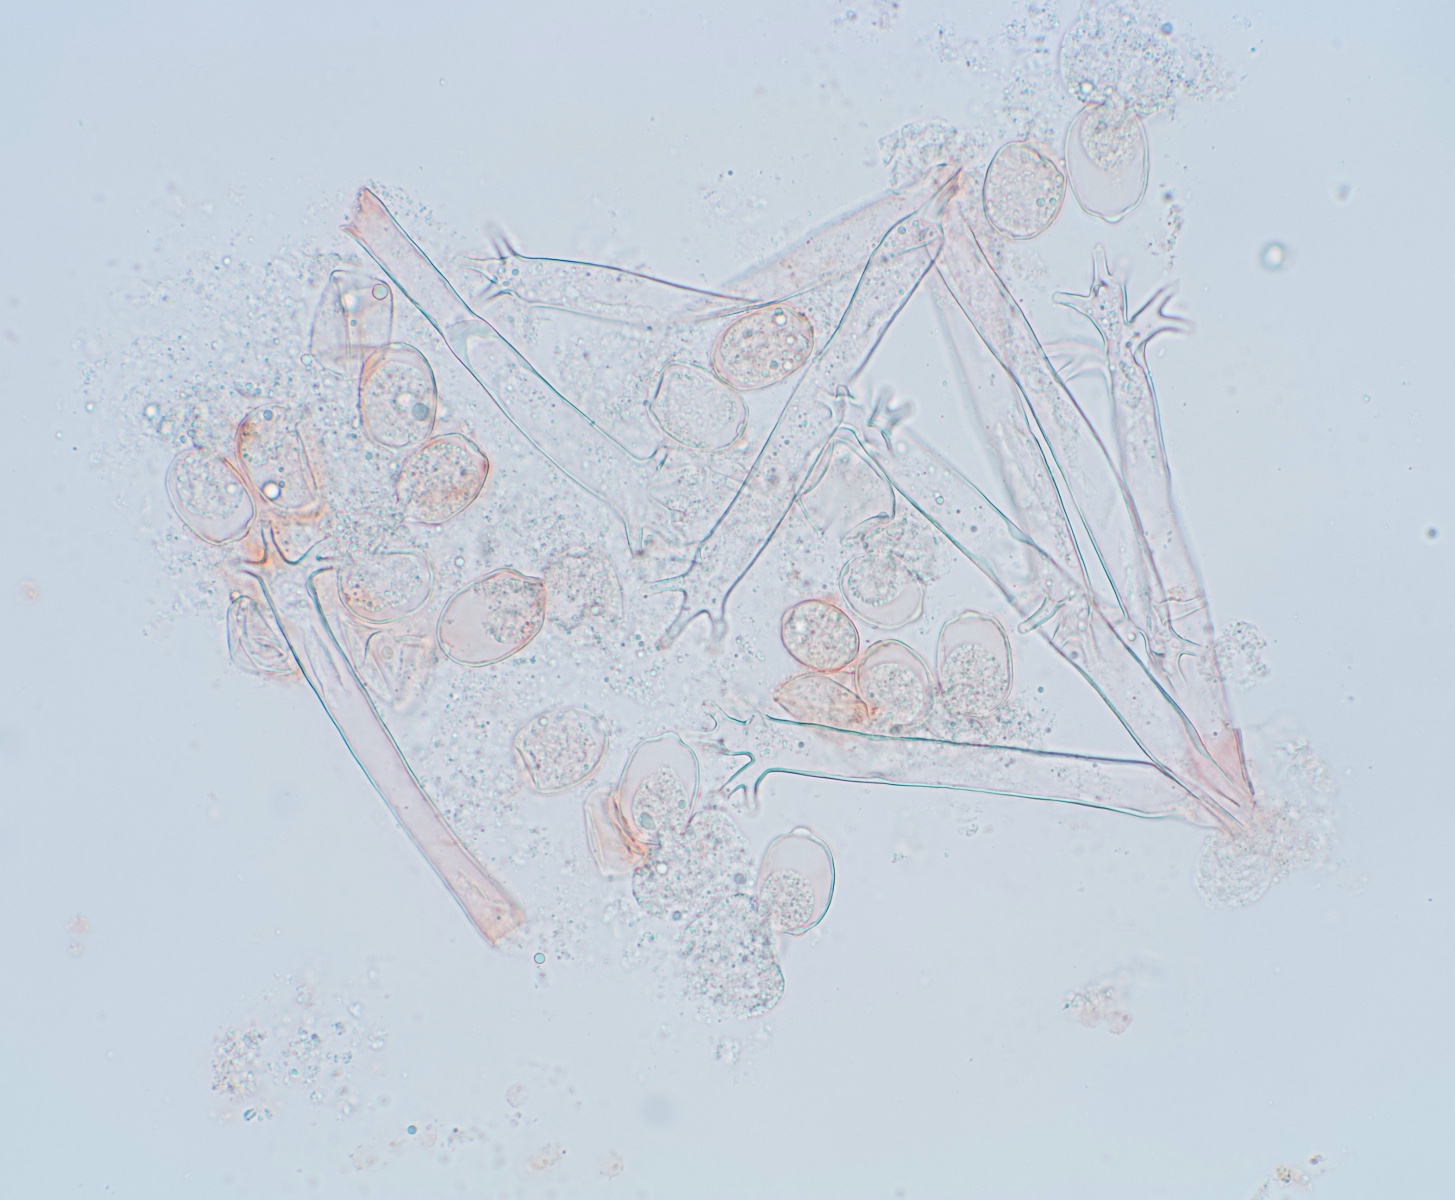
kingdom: Chromista
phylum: Oomycota
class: Peronosporea
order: Peronosporales
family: Peronosporaceae
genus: Plasmoverna
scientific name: Plasmoverna pygmaea
